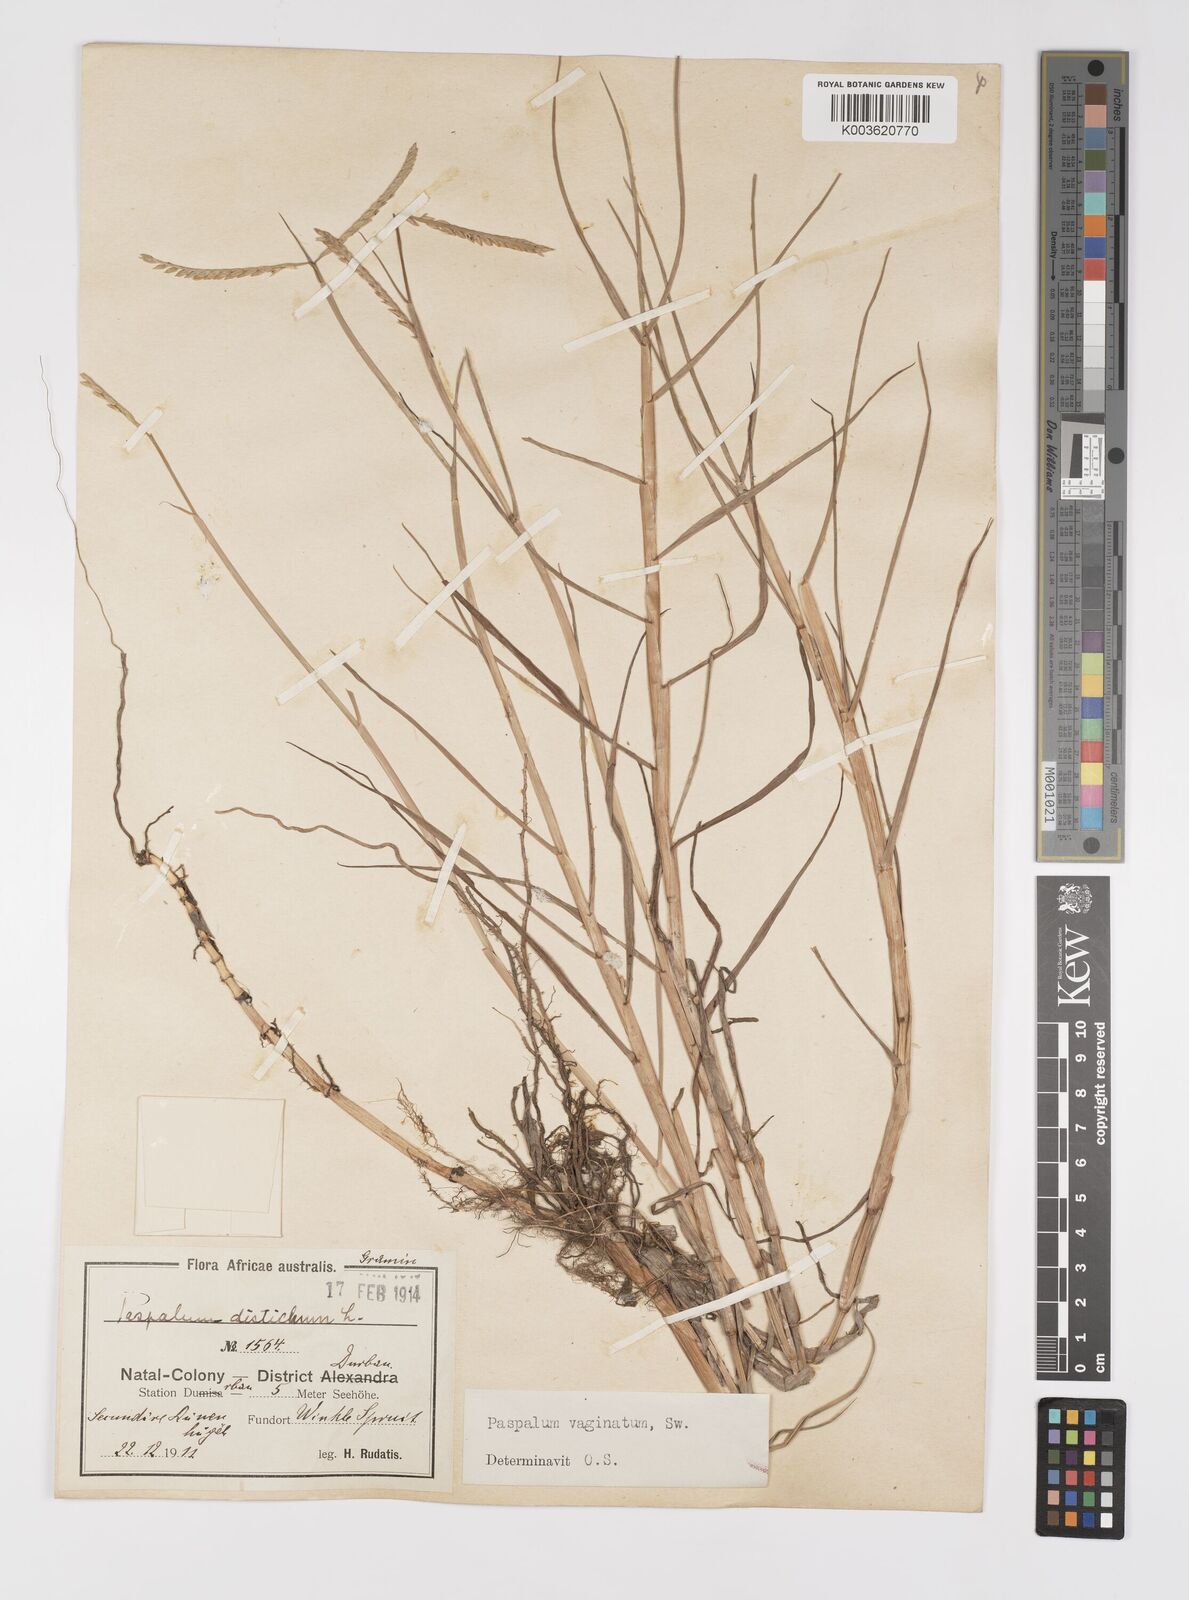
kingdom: Plantae
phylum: Tracheophyta
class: Liliopsida
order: Poales
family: Poaceae
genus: Paspalum
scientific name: Paspalum vaginatum
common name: Seashore paspalum
